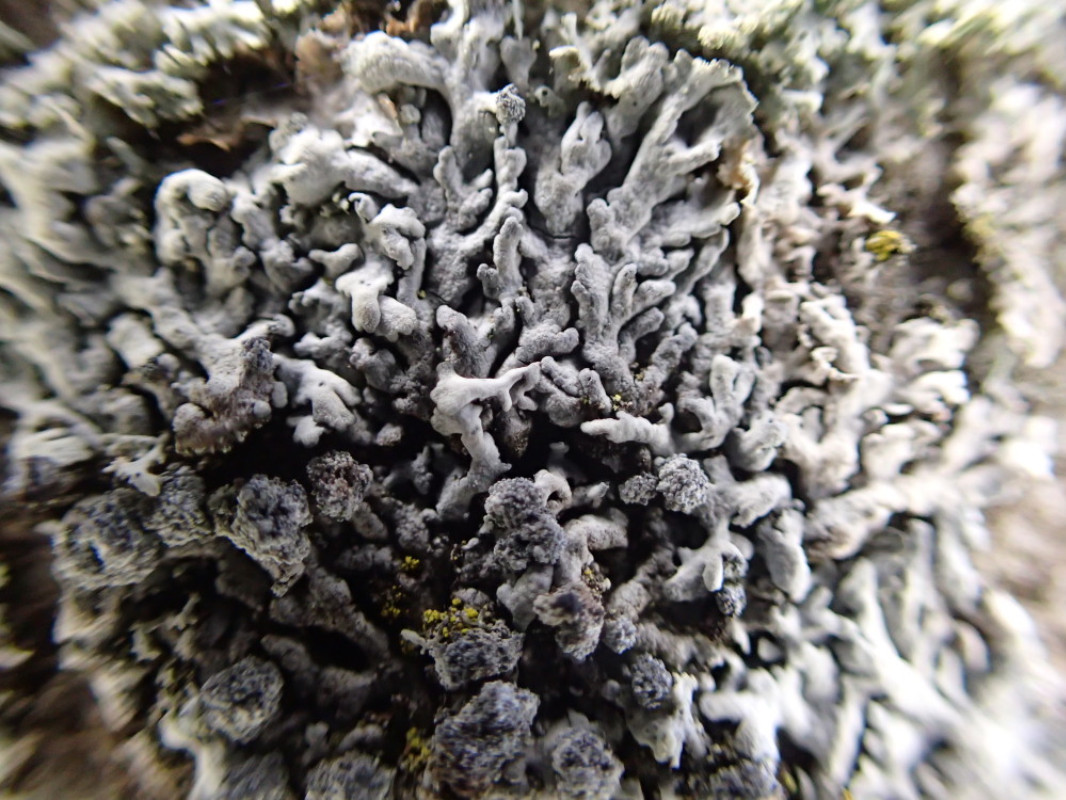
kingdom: Fungi
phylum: Ascomycota
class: Lecanoromycetes
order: Caliciales
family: Physciaceae
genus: Physcia
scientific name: Physcia caesia
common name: blågrå rosetlav
